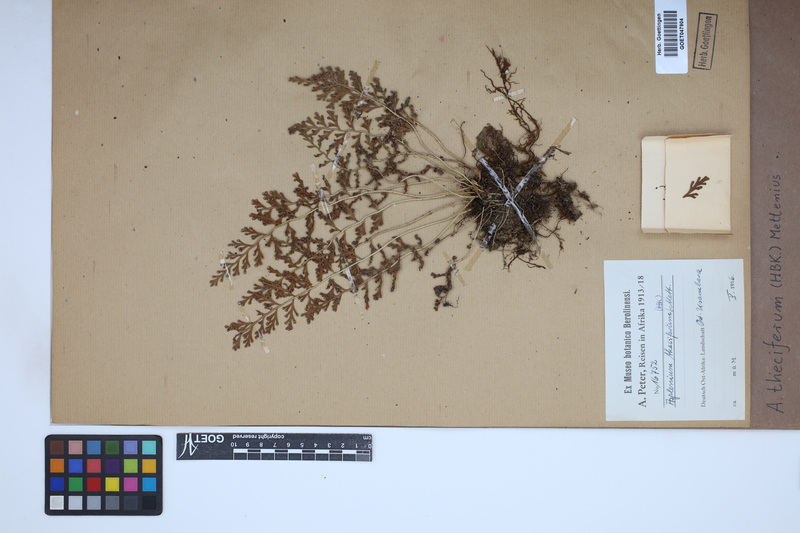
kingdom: Plantae
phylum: Tracheophyta
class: Polypodiopsida
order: Polypodiales
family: Aspleniaceae
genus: Asplenium
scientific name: Asplenium theciferum
